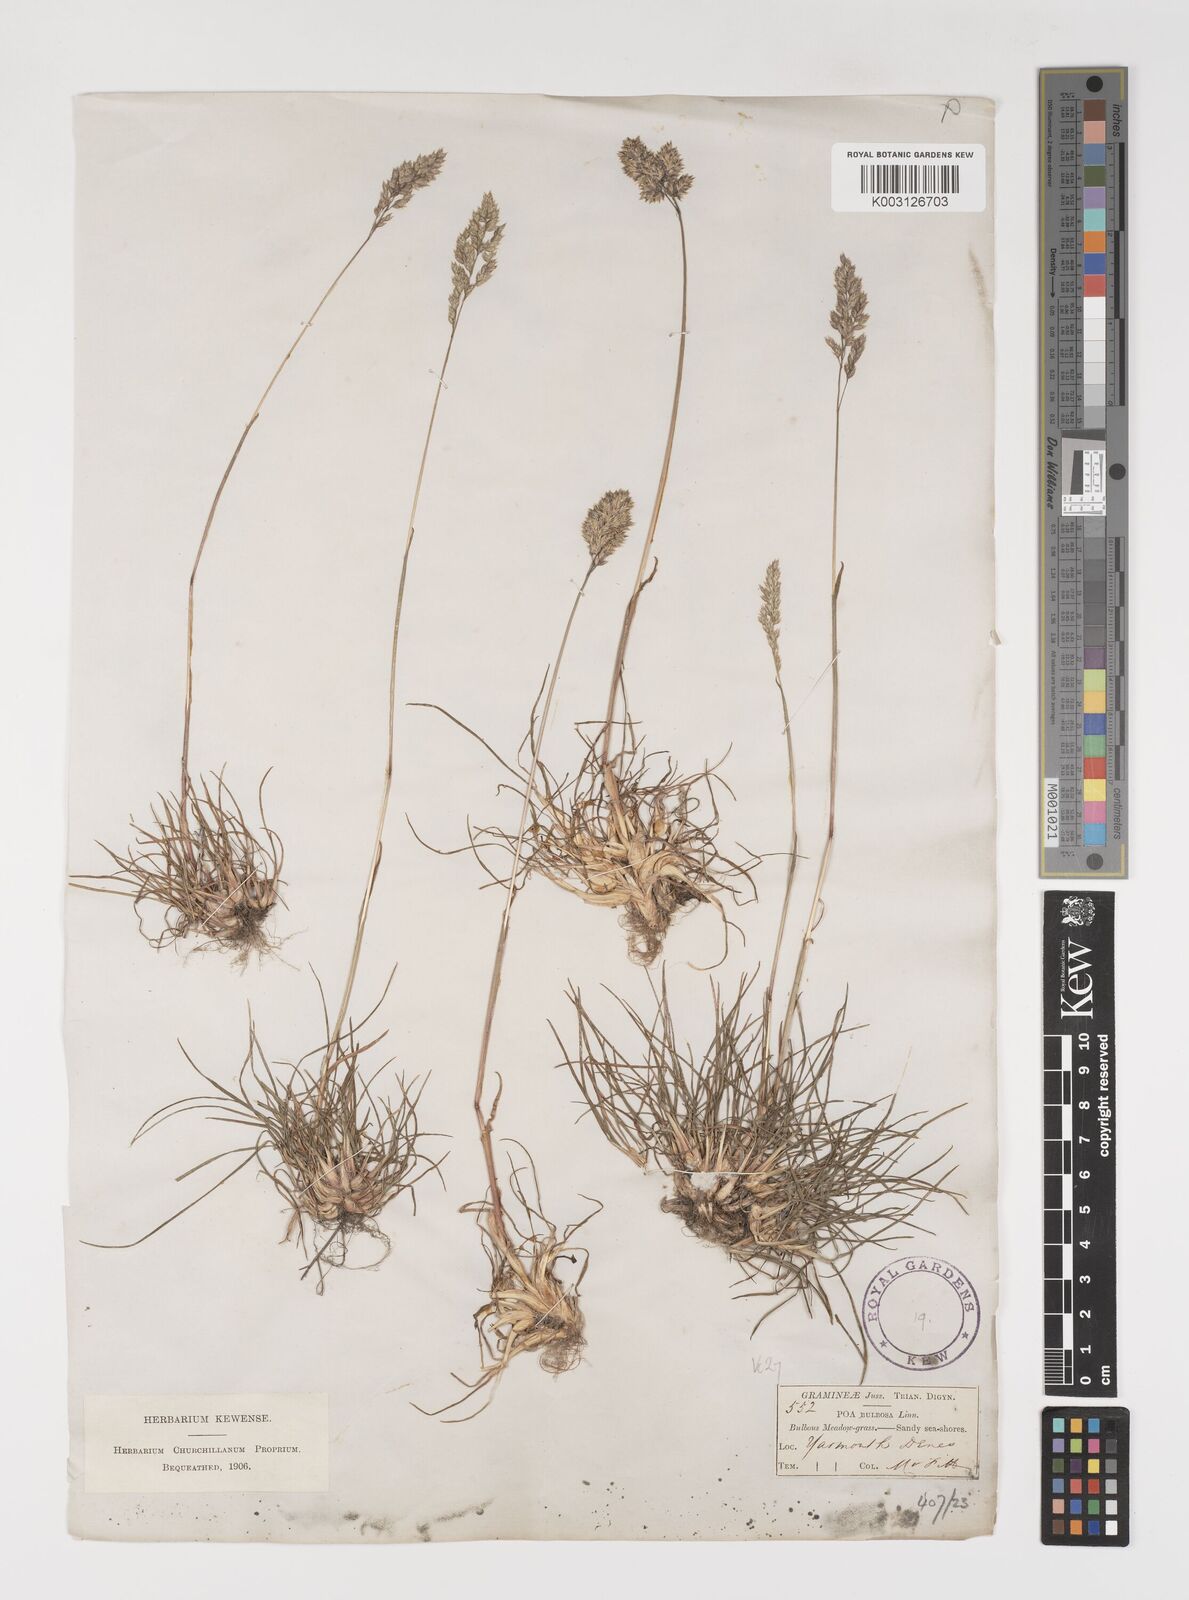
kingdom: Plantae
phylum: Tracheophyta
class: Liliopsida
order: Poales
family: Poaceae
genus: Poa
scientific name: Poa bulbosa
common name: Bulbous bluegrass
